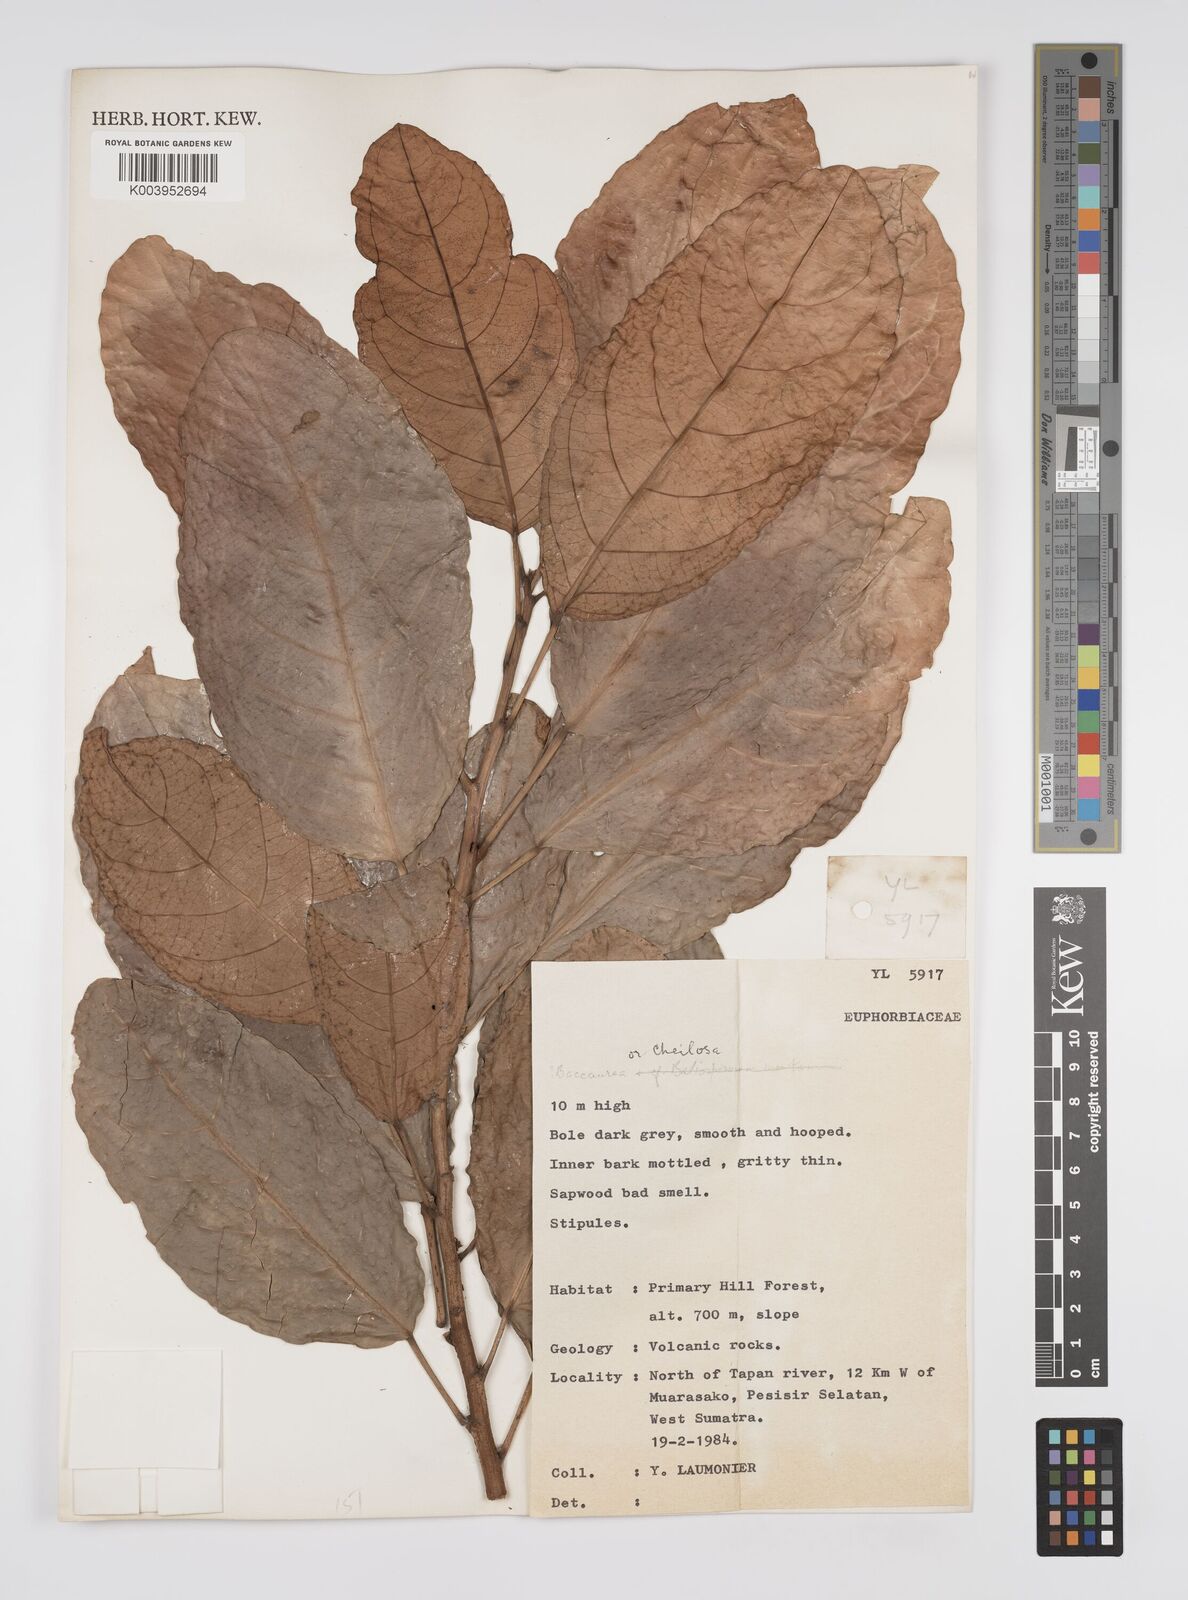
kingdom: Plantae
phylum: Tracheophyta
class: Magnoliopsida
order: Malpighiales
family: Euphorbiaceae
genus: Cheilosa
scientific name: Cheilosa
